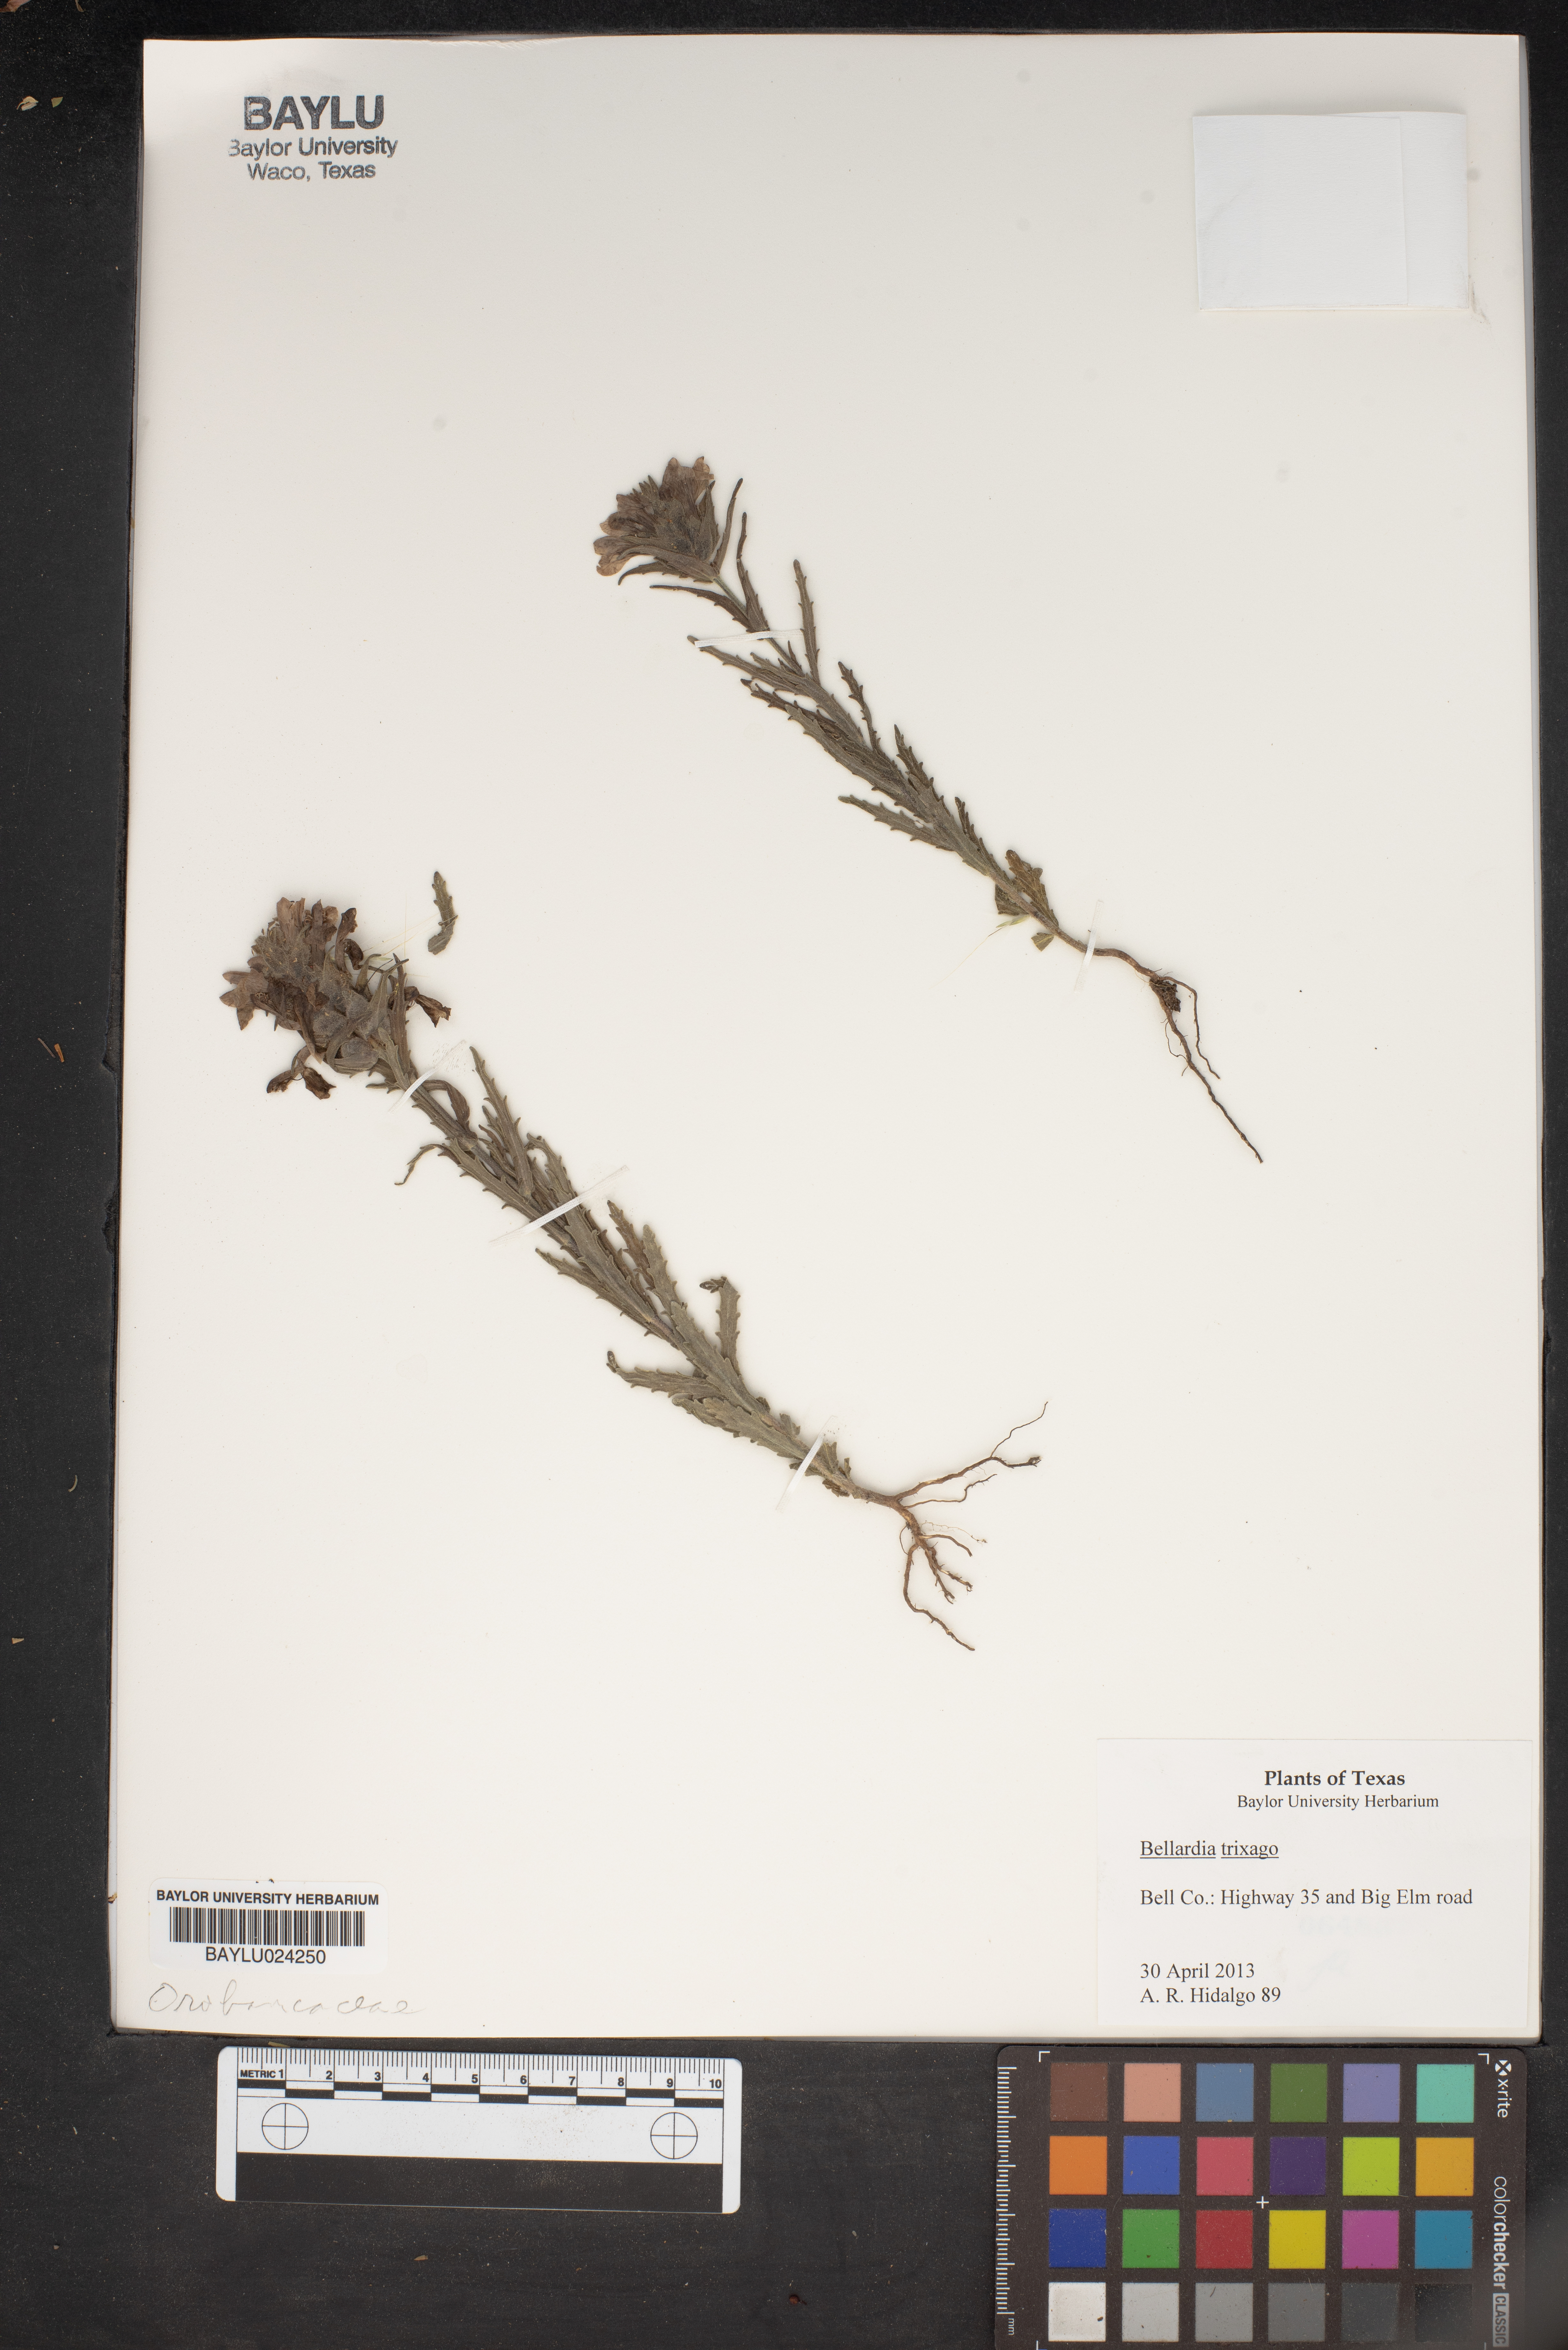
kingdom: Plantae
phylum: Tracheophyta
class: Magnoliopsida
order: Lamiales
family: Orobanchaceae
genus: Bellardia
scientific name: Bellardia trixago
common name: Mediterranean lineseed
